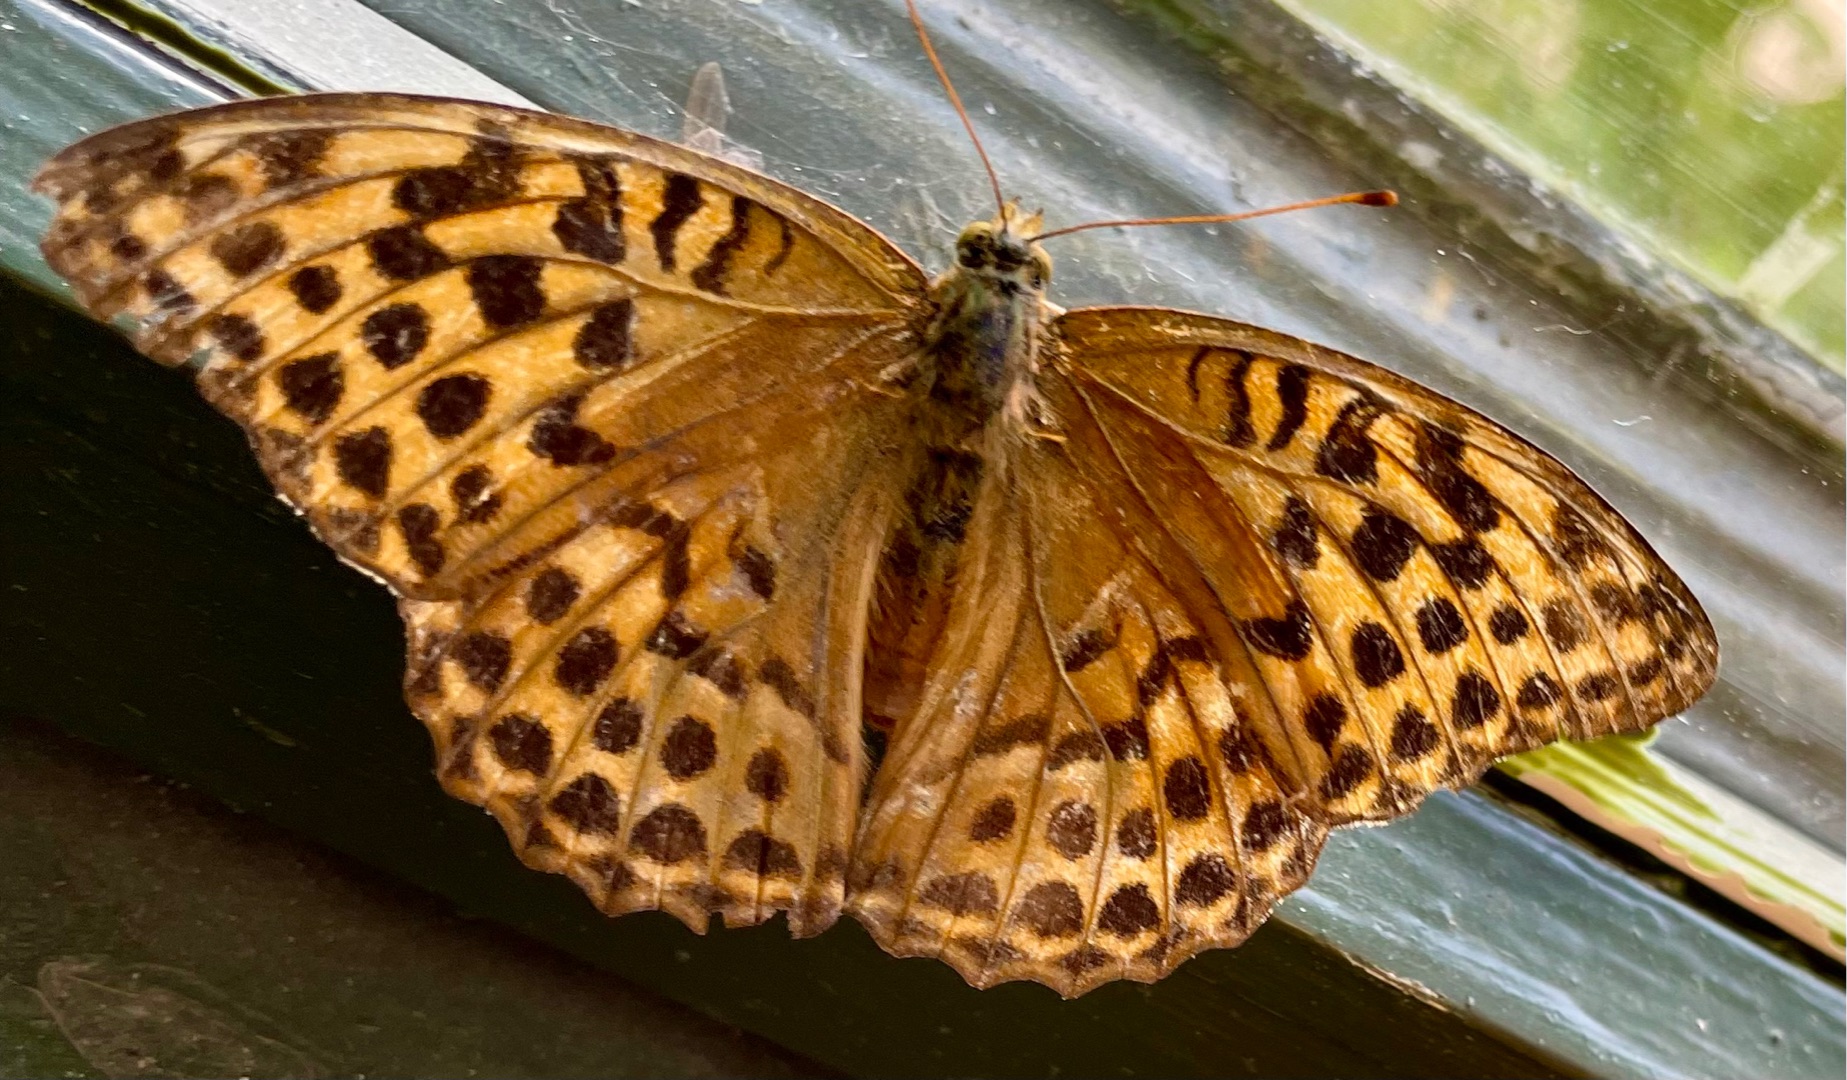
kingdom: Animalia
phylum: Arthropoda
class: Insecta
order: Lepidoptera
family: Nymphalidae
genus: Argynnis
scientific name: Argynnis paphia
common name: Kejserkåbe
